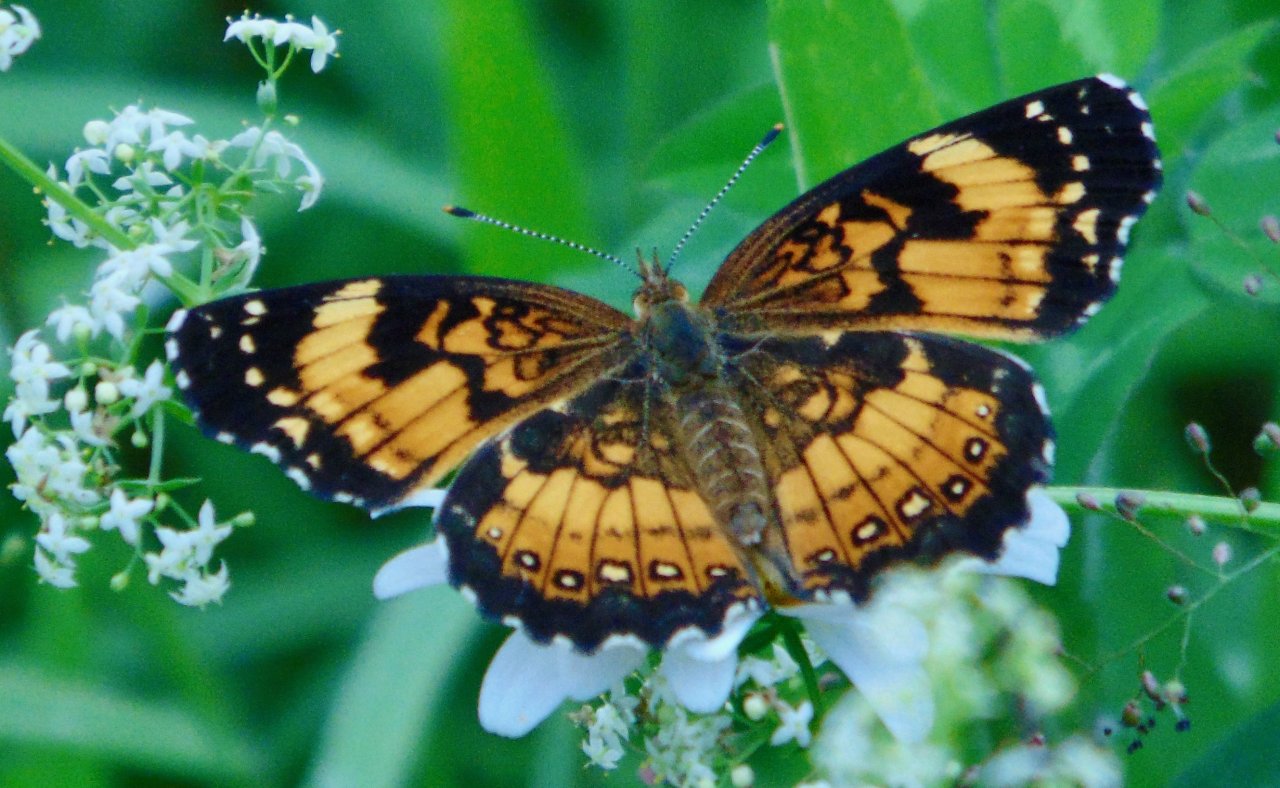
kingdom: Animalia
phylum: Arthropoda
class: Insecta
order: Lepidoptera
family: Nymphalidae
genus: Chlosyne
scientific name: Chlosyne nycteis
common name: Silvery Checkerspot
